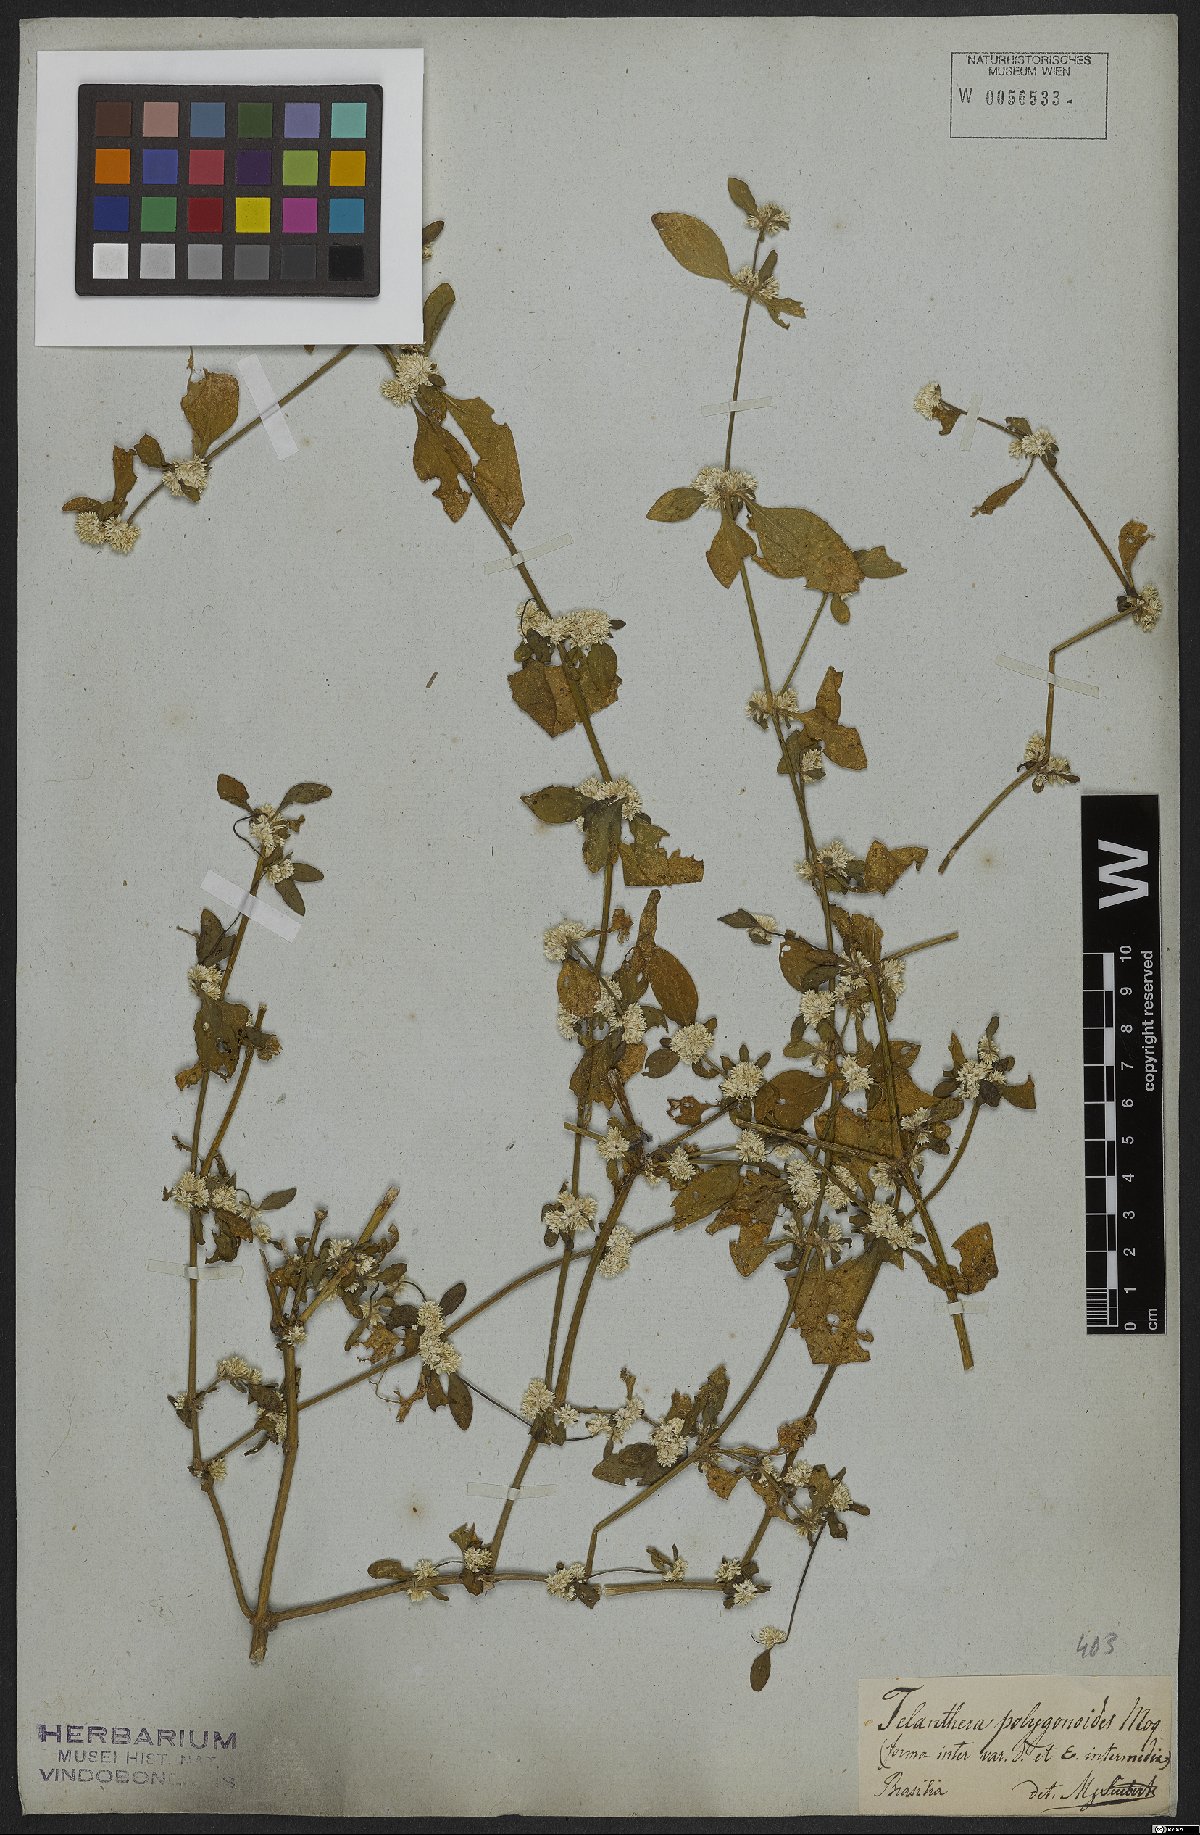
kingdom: Plantae
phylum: Tracheophyta
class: Magnoliopsida
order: Caryophyllales
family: Amaranthaceae
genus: Alternanthera
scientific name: Alternanthera sessilis
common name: Sessile joyweed
